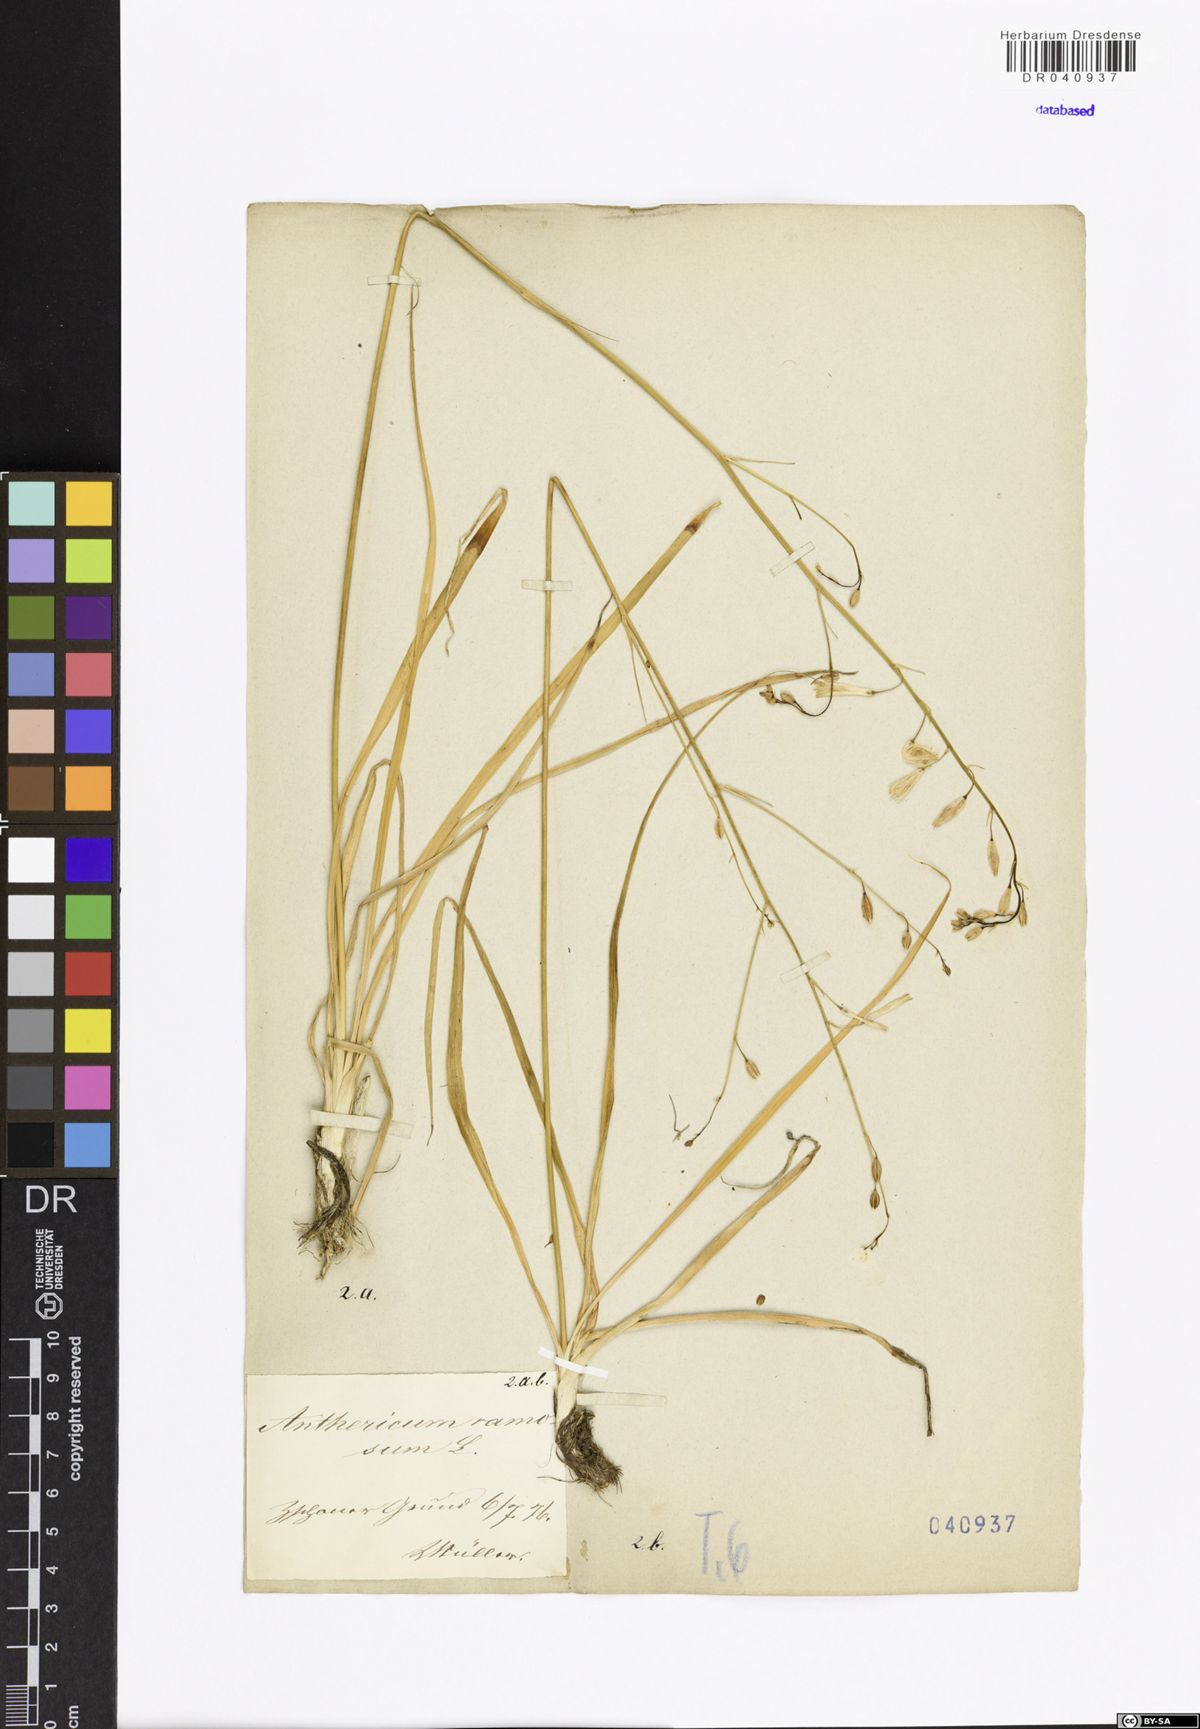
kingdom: Plantae
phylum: Tracheophyta
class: Liliopsida
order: Asparagales
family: Asparagaceae
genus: Anthericum
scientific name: Anthericum ramosum
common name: Branched st. bernard's-lily
